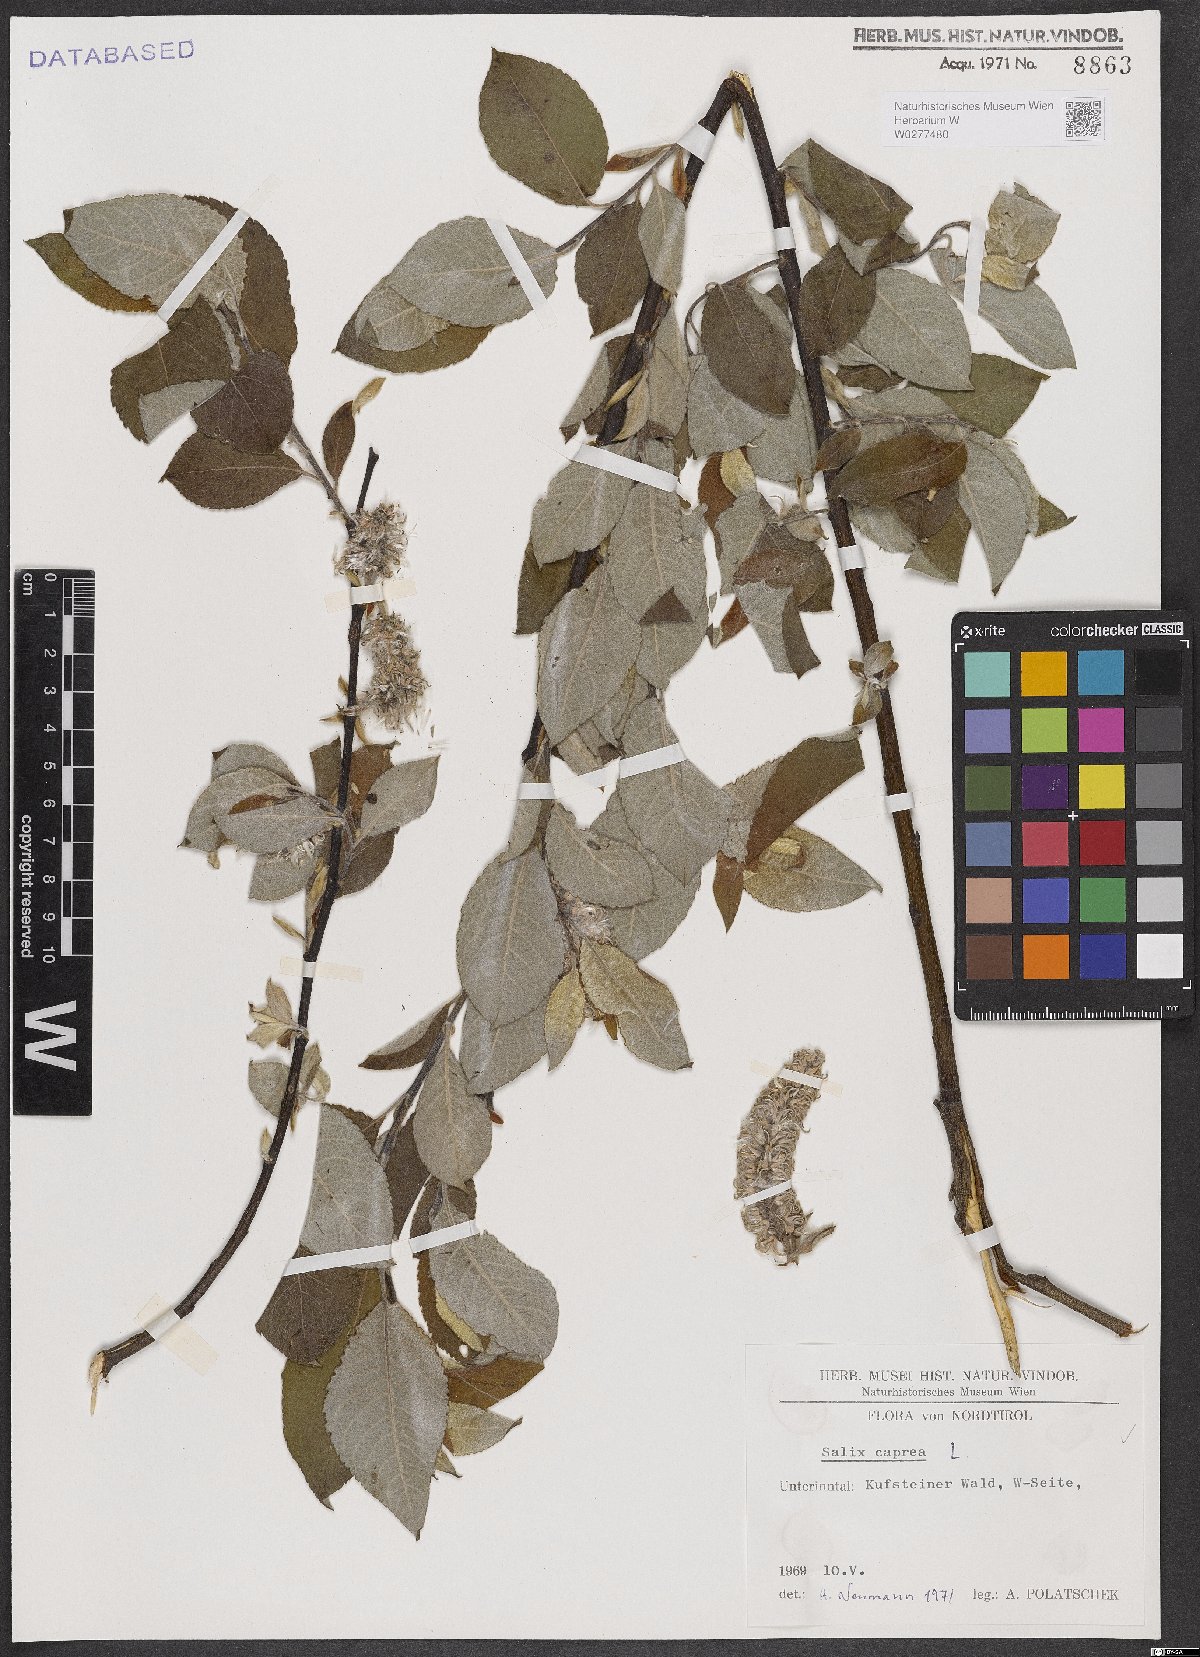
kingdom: Plantae
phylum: Tracheophyta
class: Magnoliopsida
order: Malpighiales
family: Salicaceae
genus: Salix
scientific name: Salix caprea
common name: Goat willow
